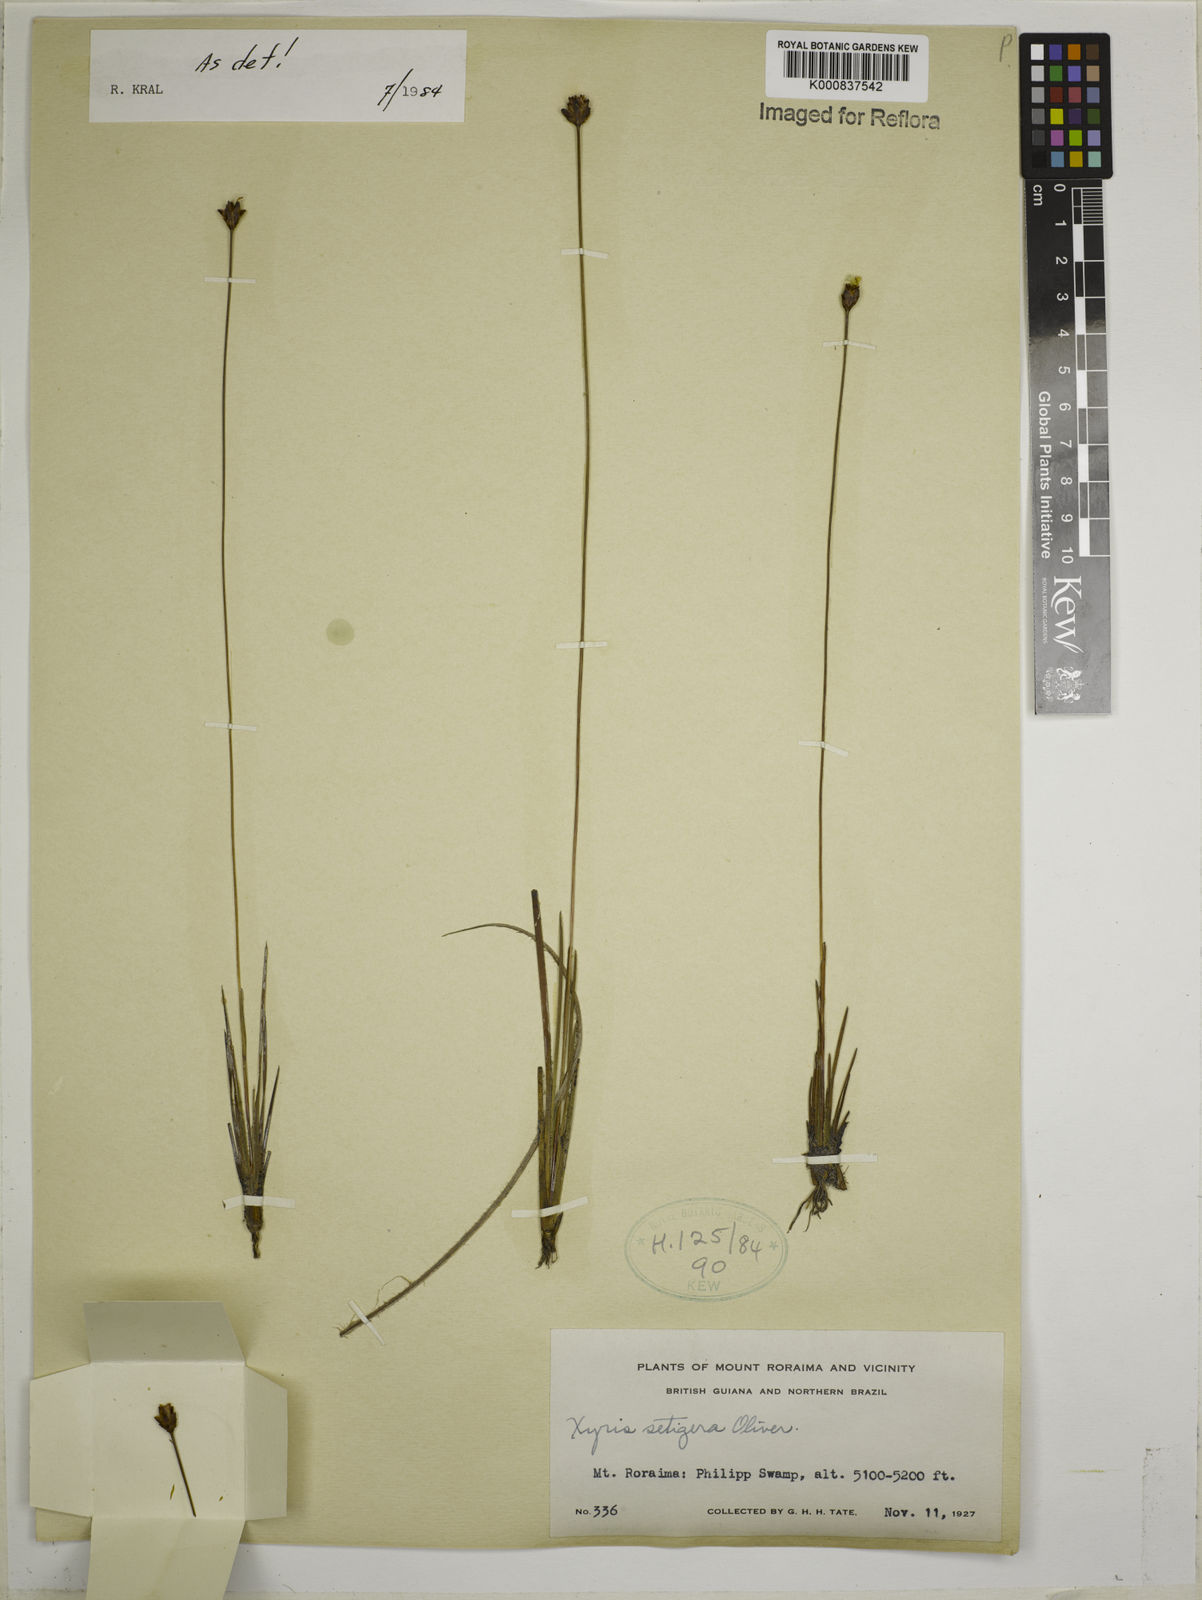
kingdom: Plantae
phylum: Tracheophyta
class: Liliopsida
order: Poales
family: Xyridaceae
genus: Xyris
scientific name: Xyris setigera
